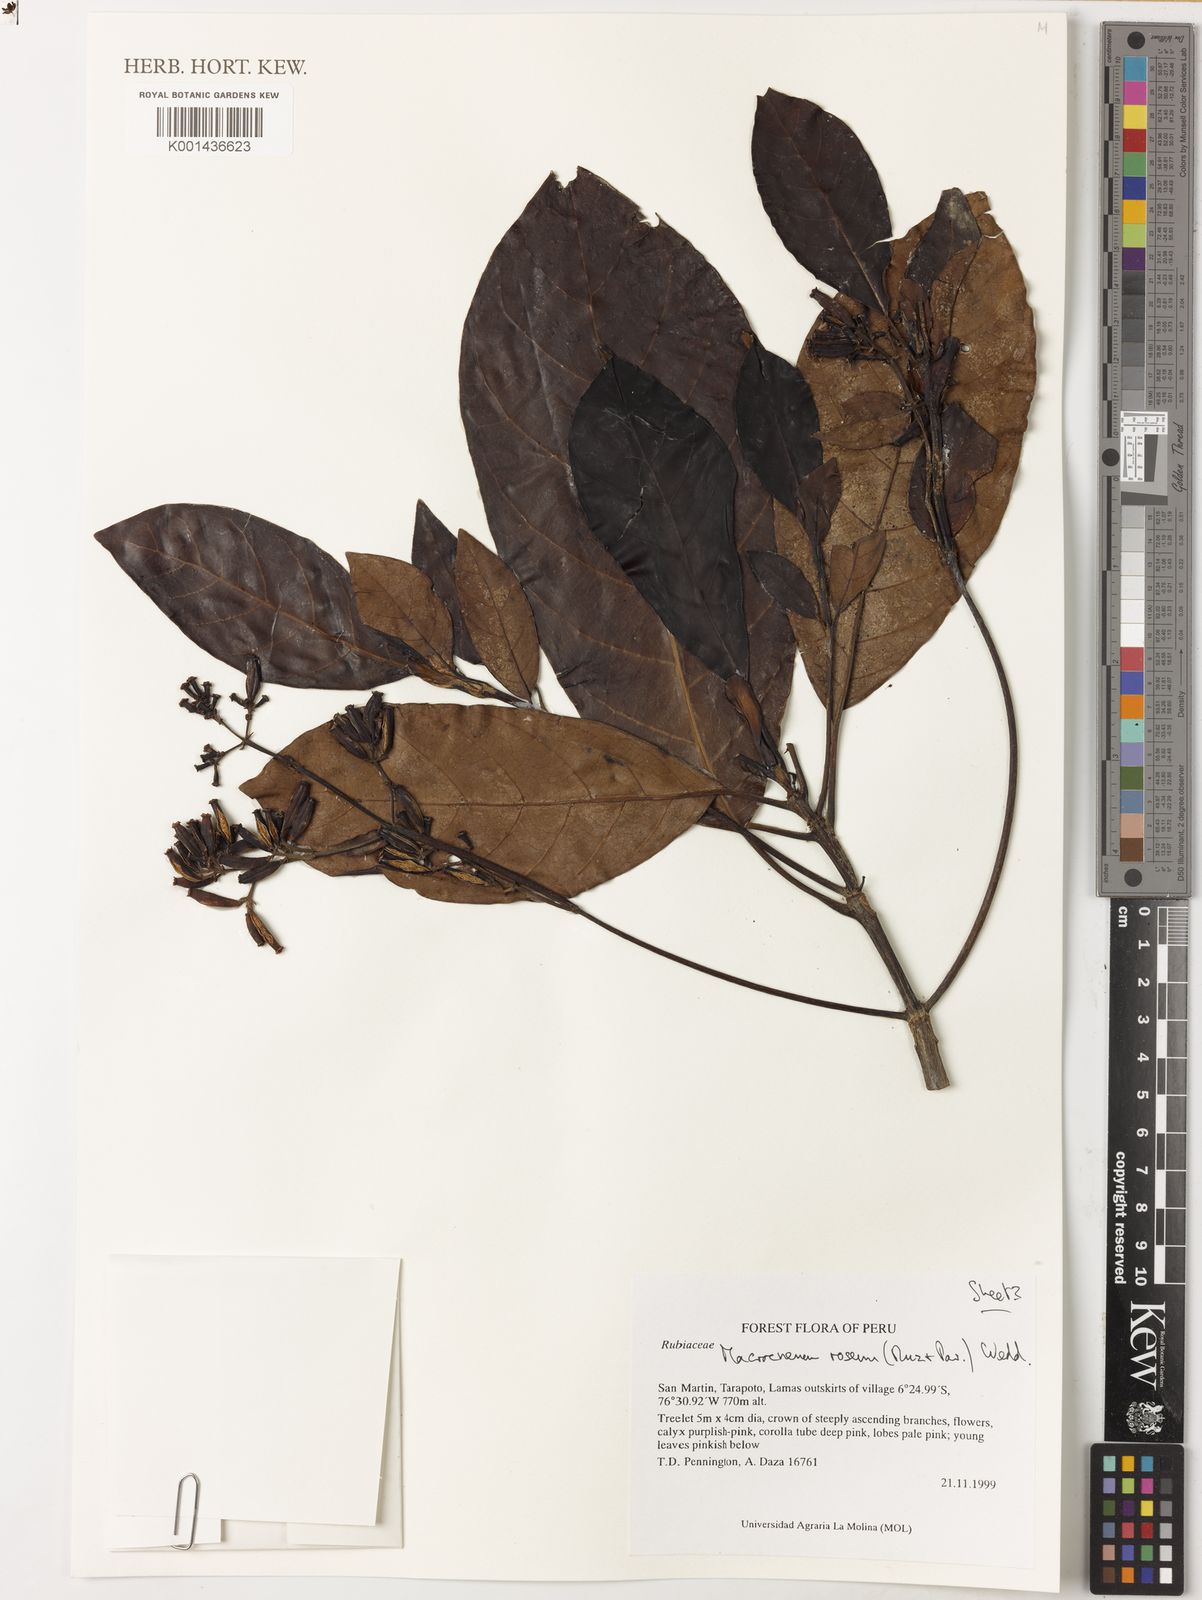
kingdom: Plantae
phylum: Tracheophyta
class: Magnoliopsida
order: Gentianales
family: Rubiaceae
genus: Macrocnemum
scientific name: Macrocnemum roseum
